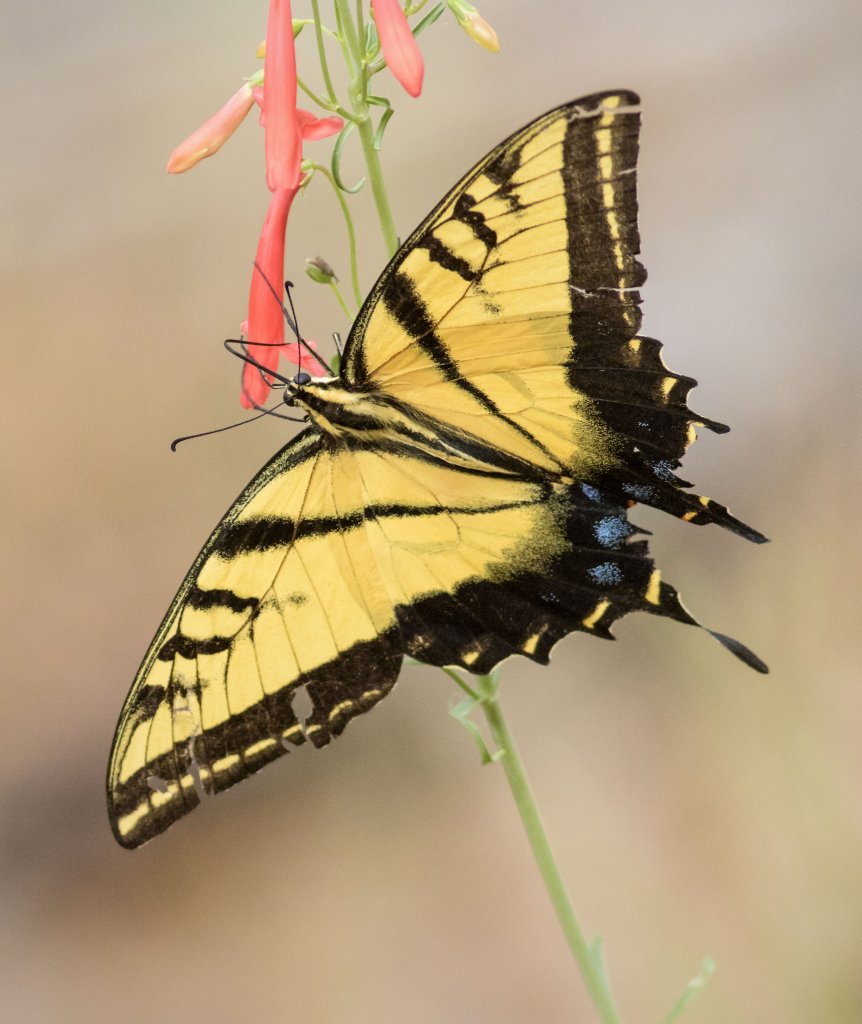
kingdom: Animalia
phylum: Arthropoda
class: Insecta
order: Lepidoptera
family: Papilionidae
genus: Papilio
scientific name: Papilio multicaudata
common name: Two-tailed Swallowtail
